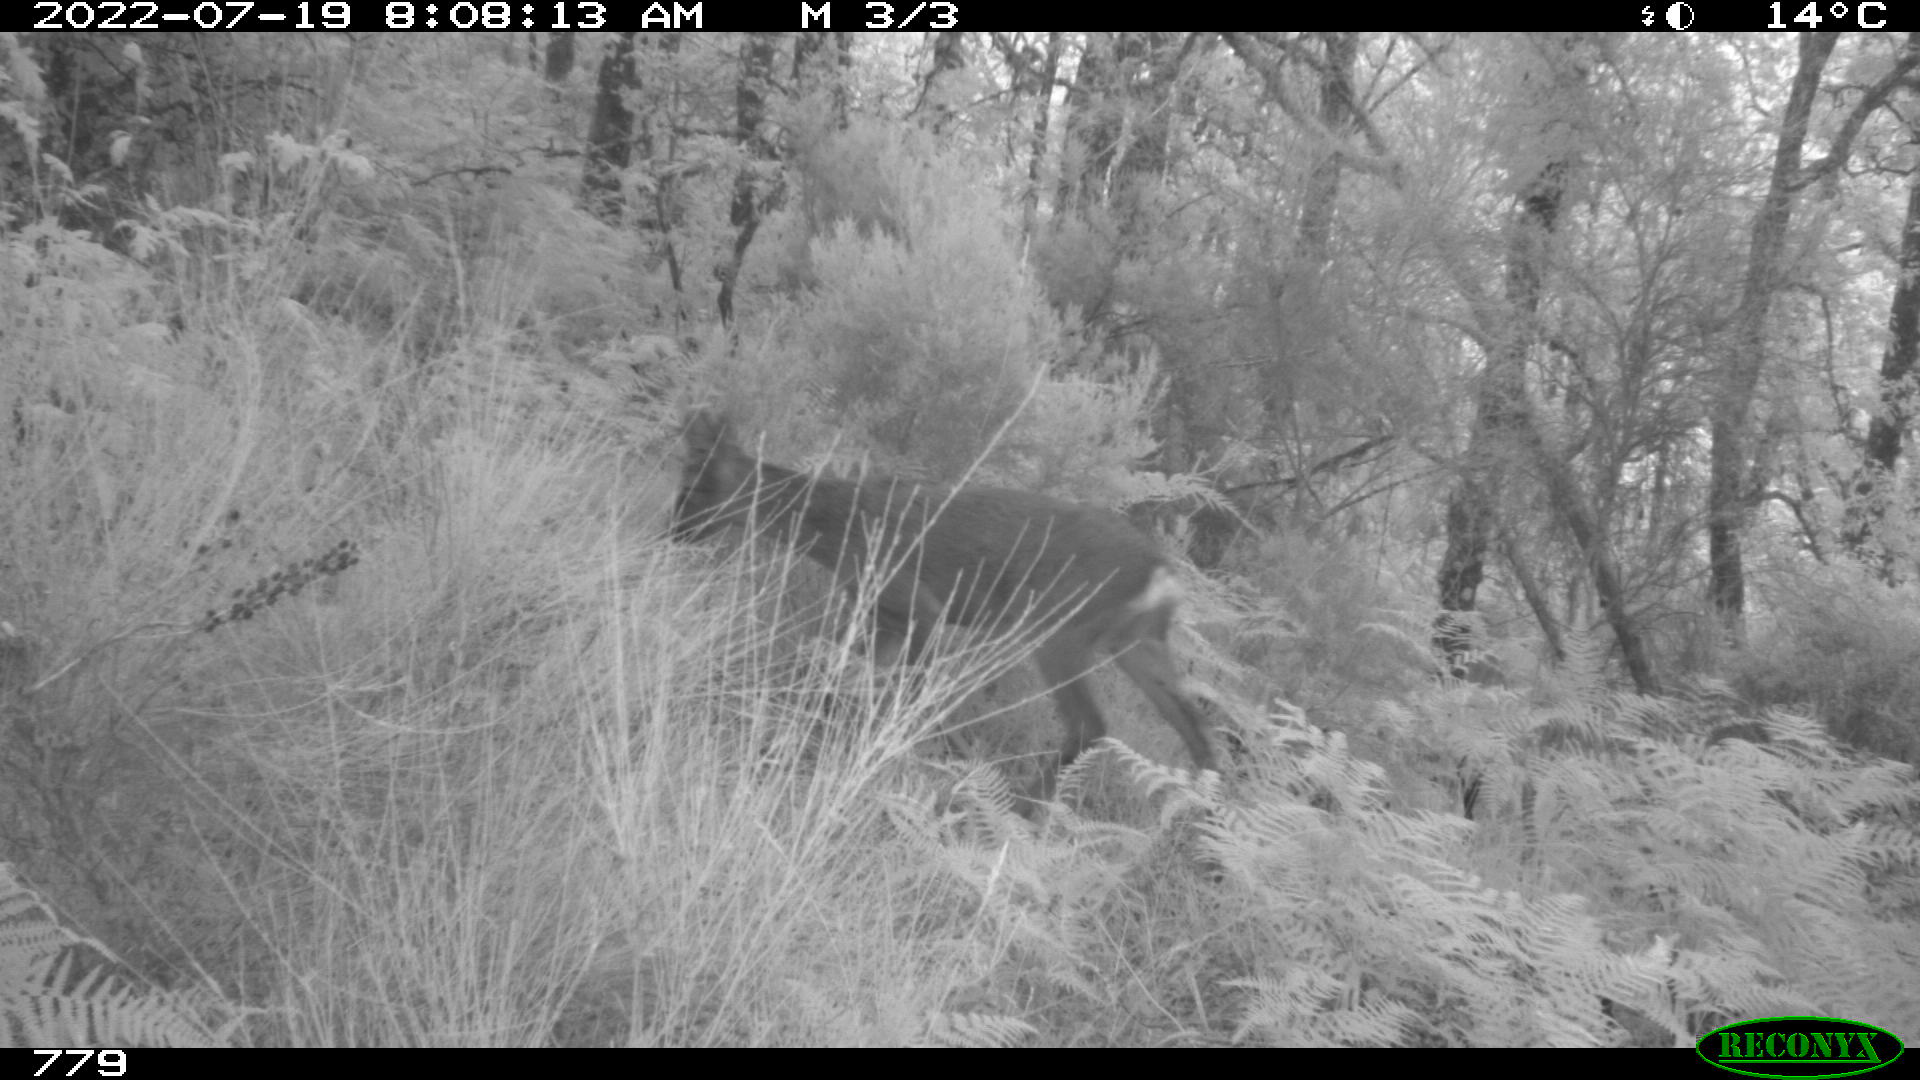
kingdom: Animalia
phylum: Chordata
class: Mammalia
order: Artiodactyla
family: Cervidae
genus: Capreolus
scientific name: Capreolus capreolus
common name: Western roe deer
